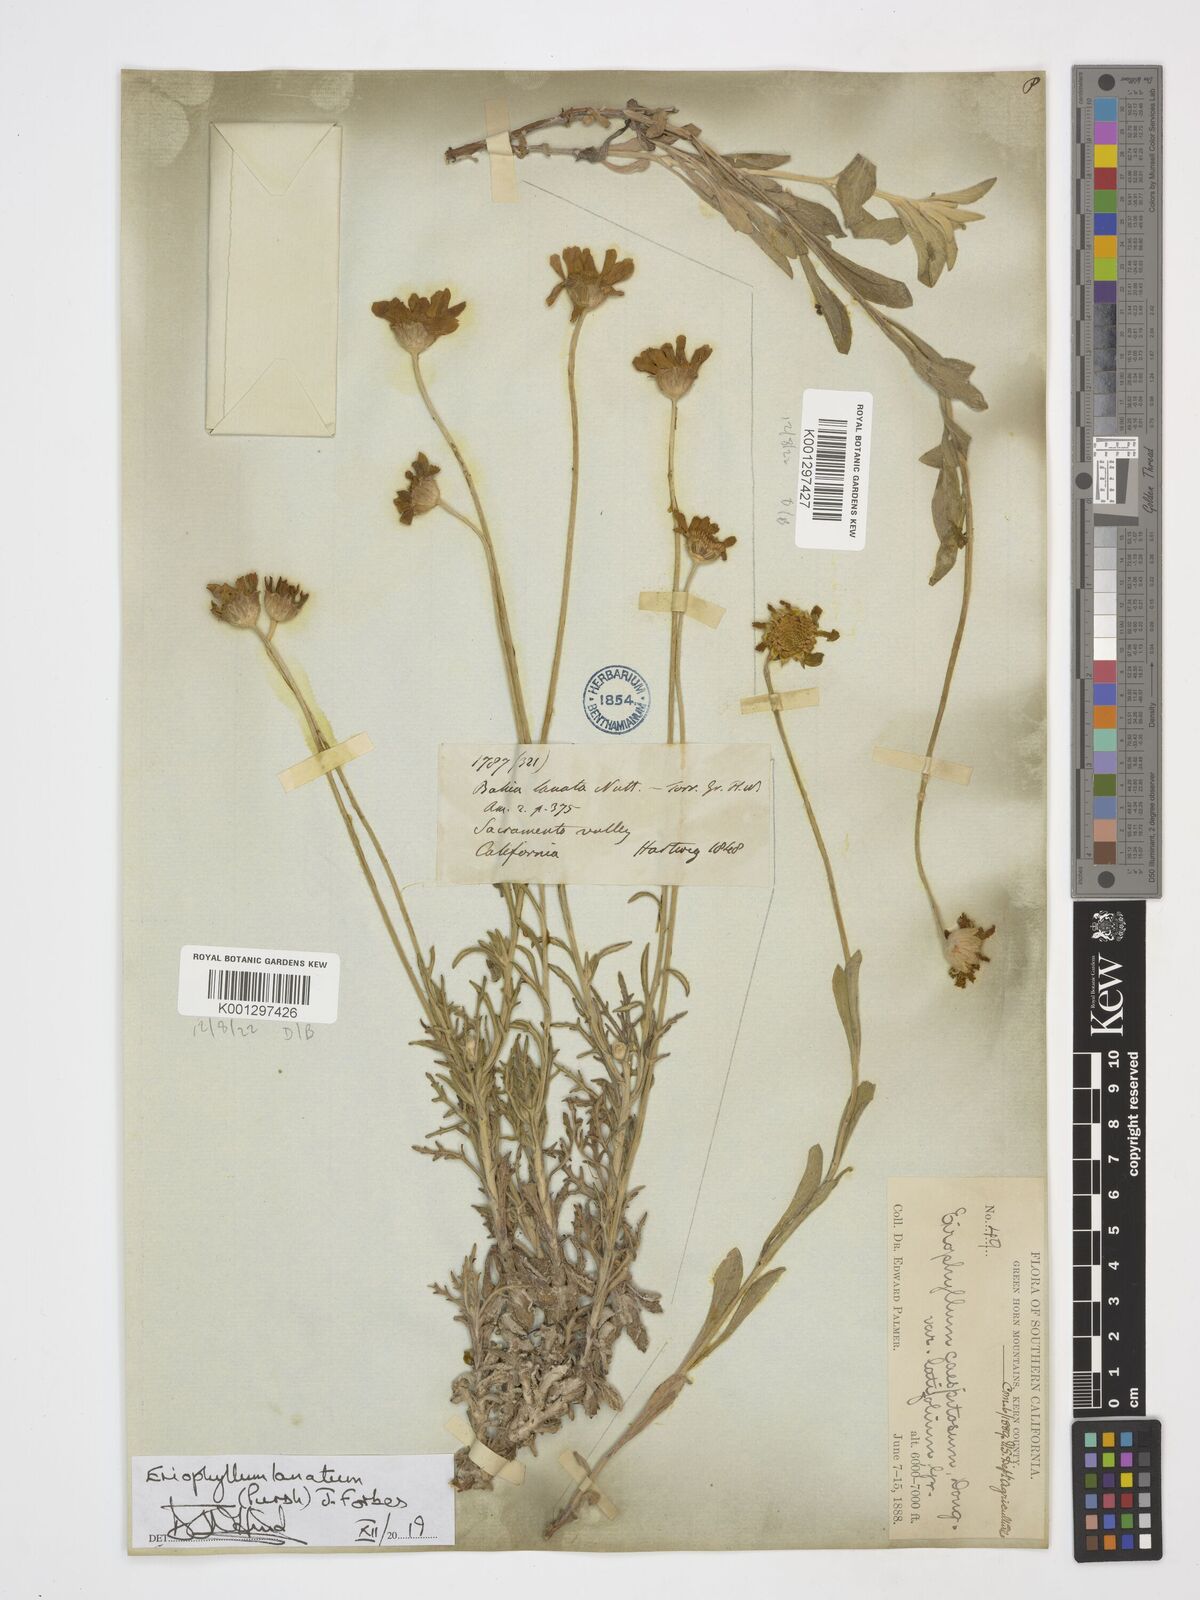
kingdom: Plantae
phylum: Tracheophyta
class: Magnoliopsida
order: Asterales
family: Asteraceae
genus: Eriophyllum
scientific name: Eriophyllum lanatum
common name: Common woolly-sunflower
